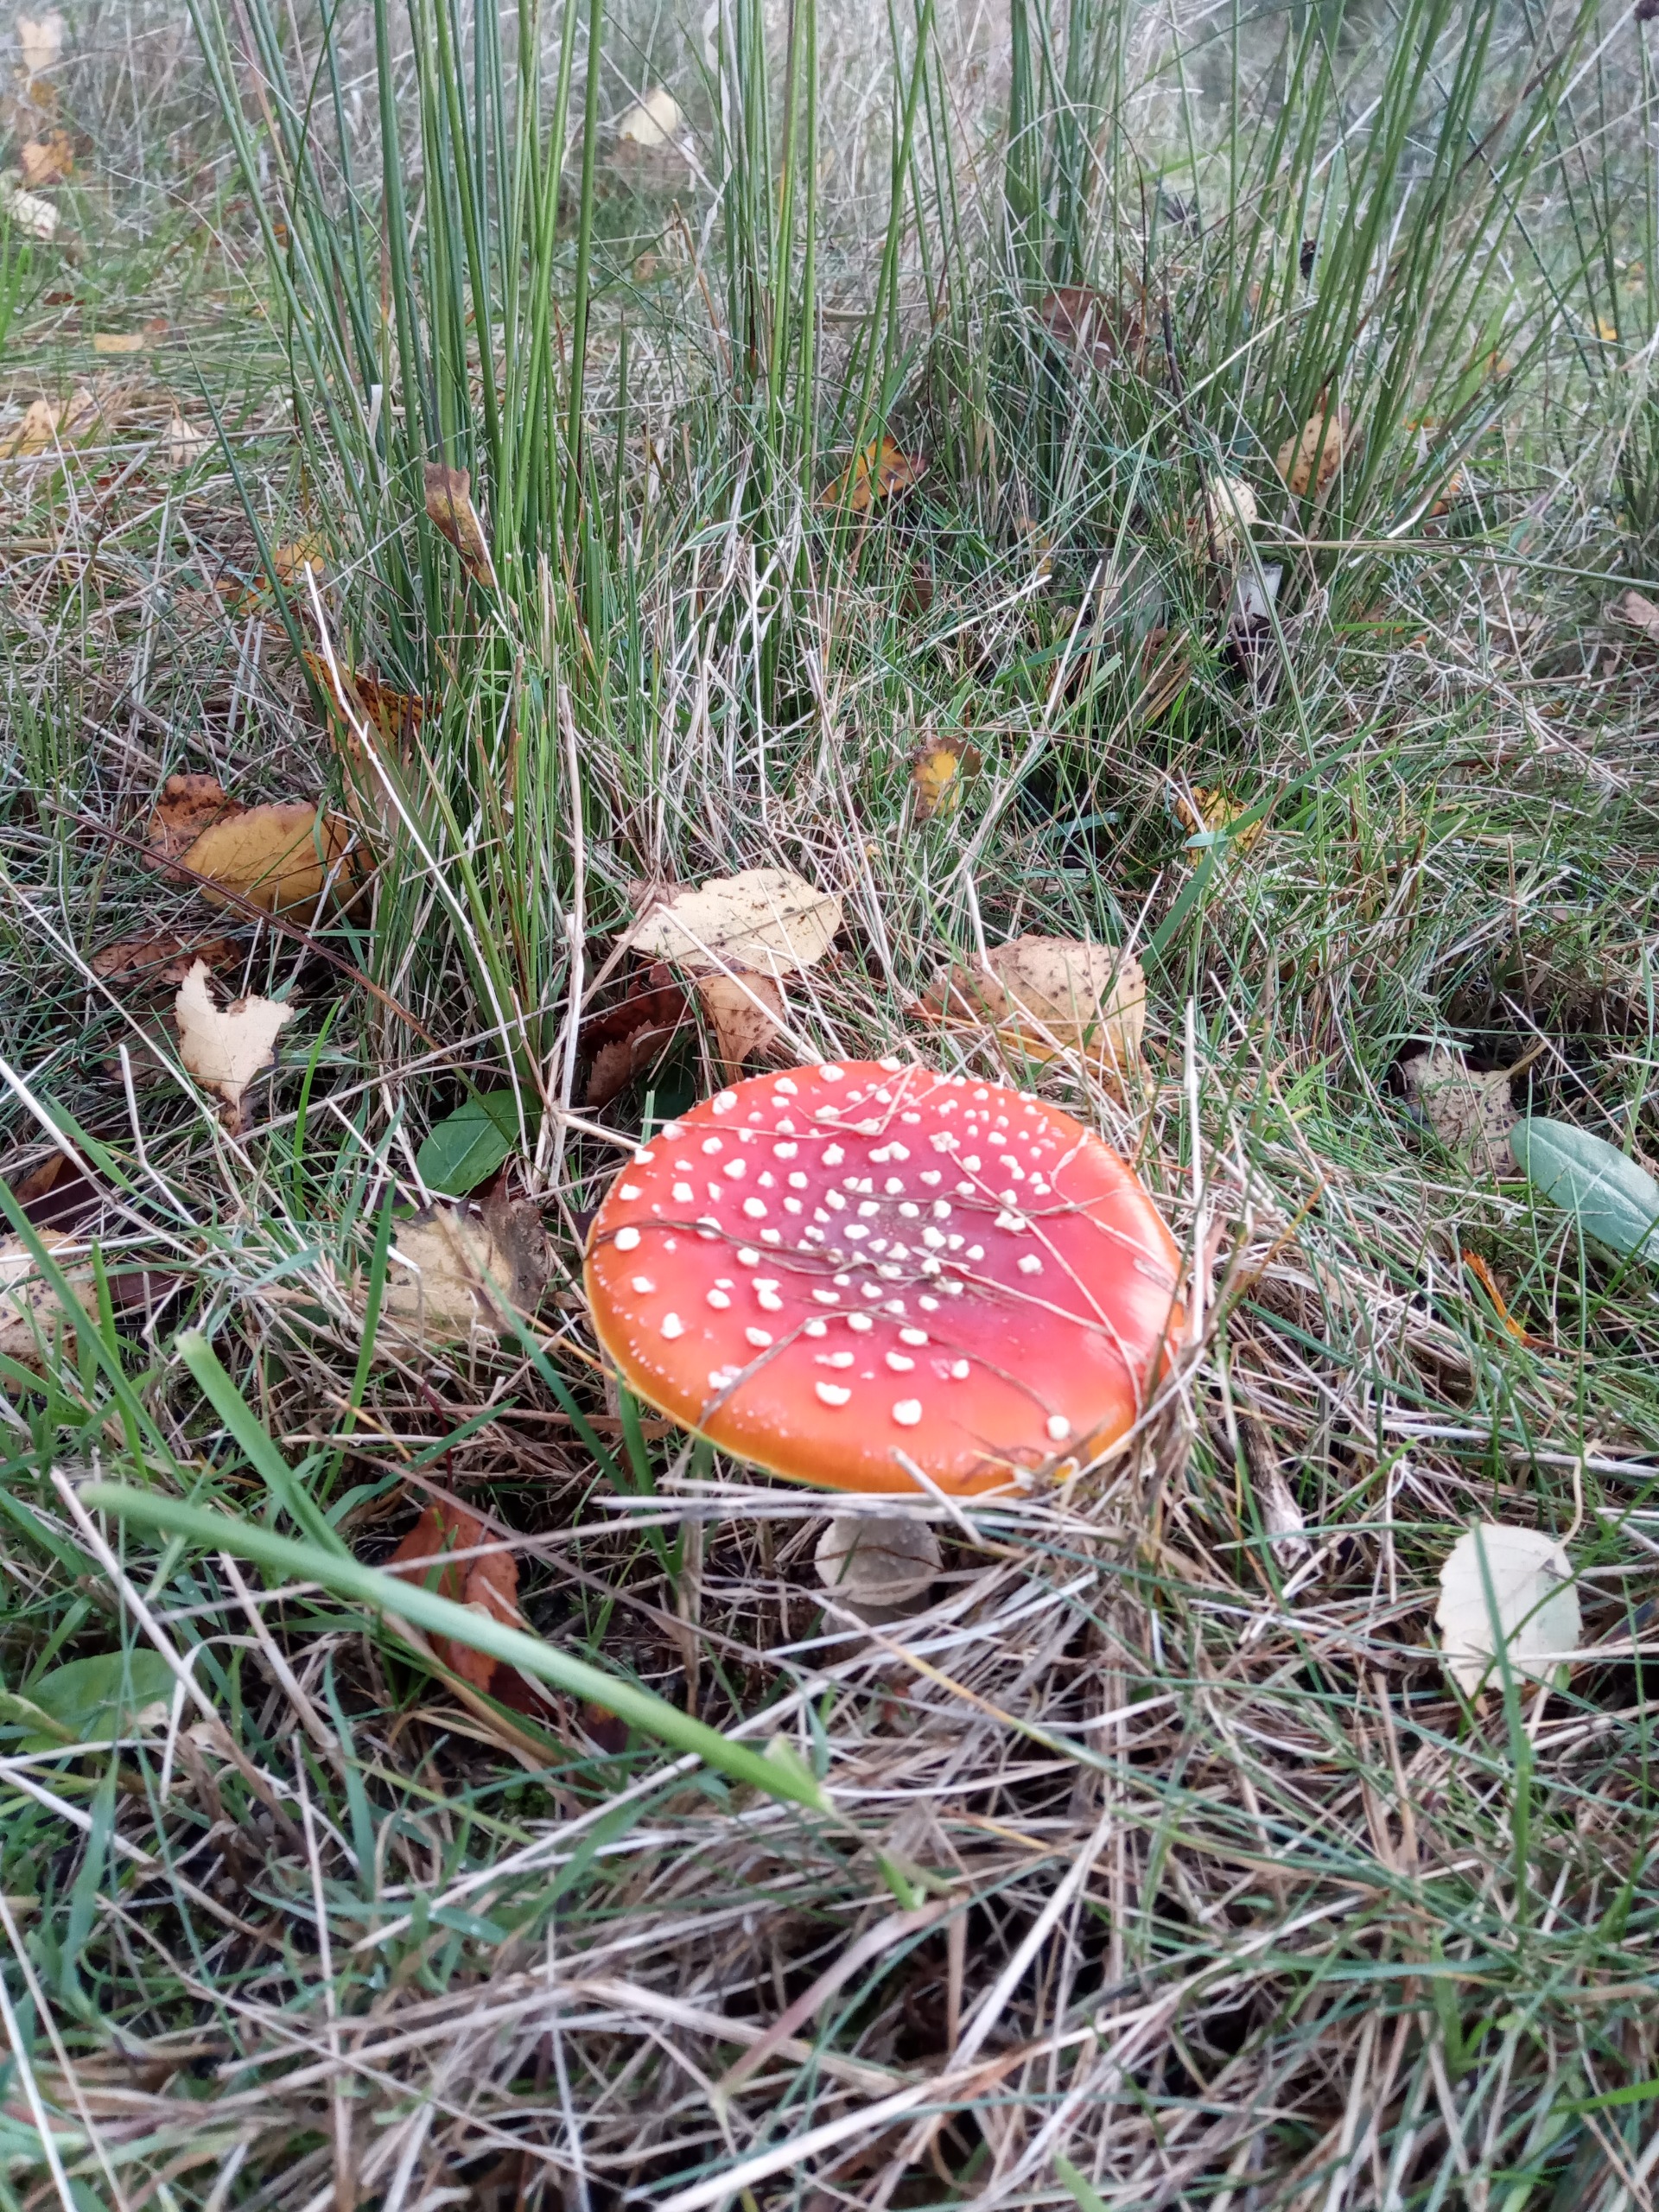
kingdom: Fungi
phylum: Basidiomycota
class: Agaricomycetes
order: Agaricales
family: Amanitaceae
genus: Amanita
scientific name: Amanita muscaria
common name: Rød fluesvamp
